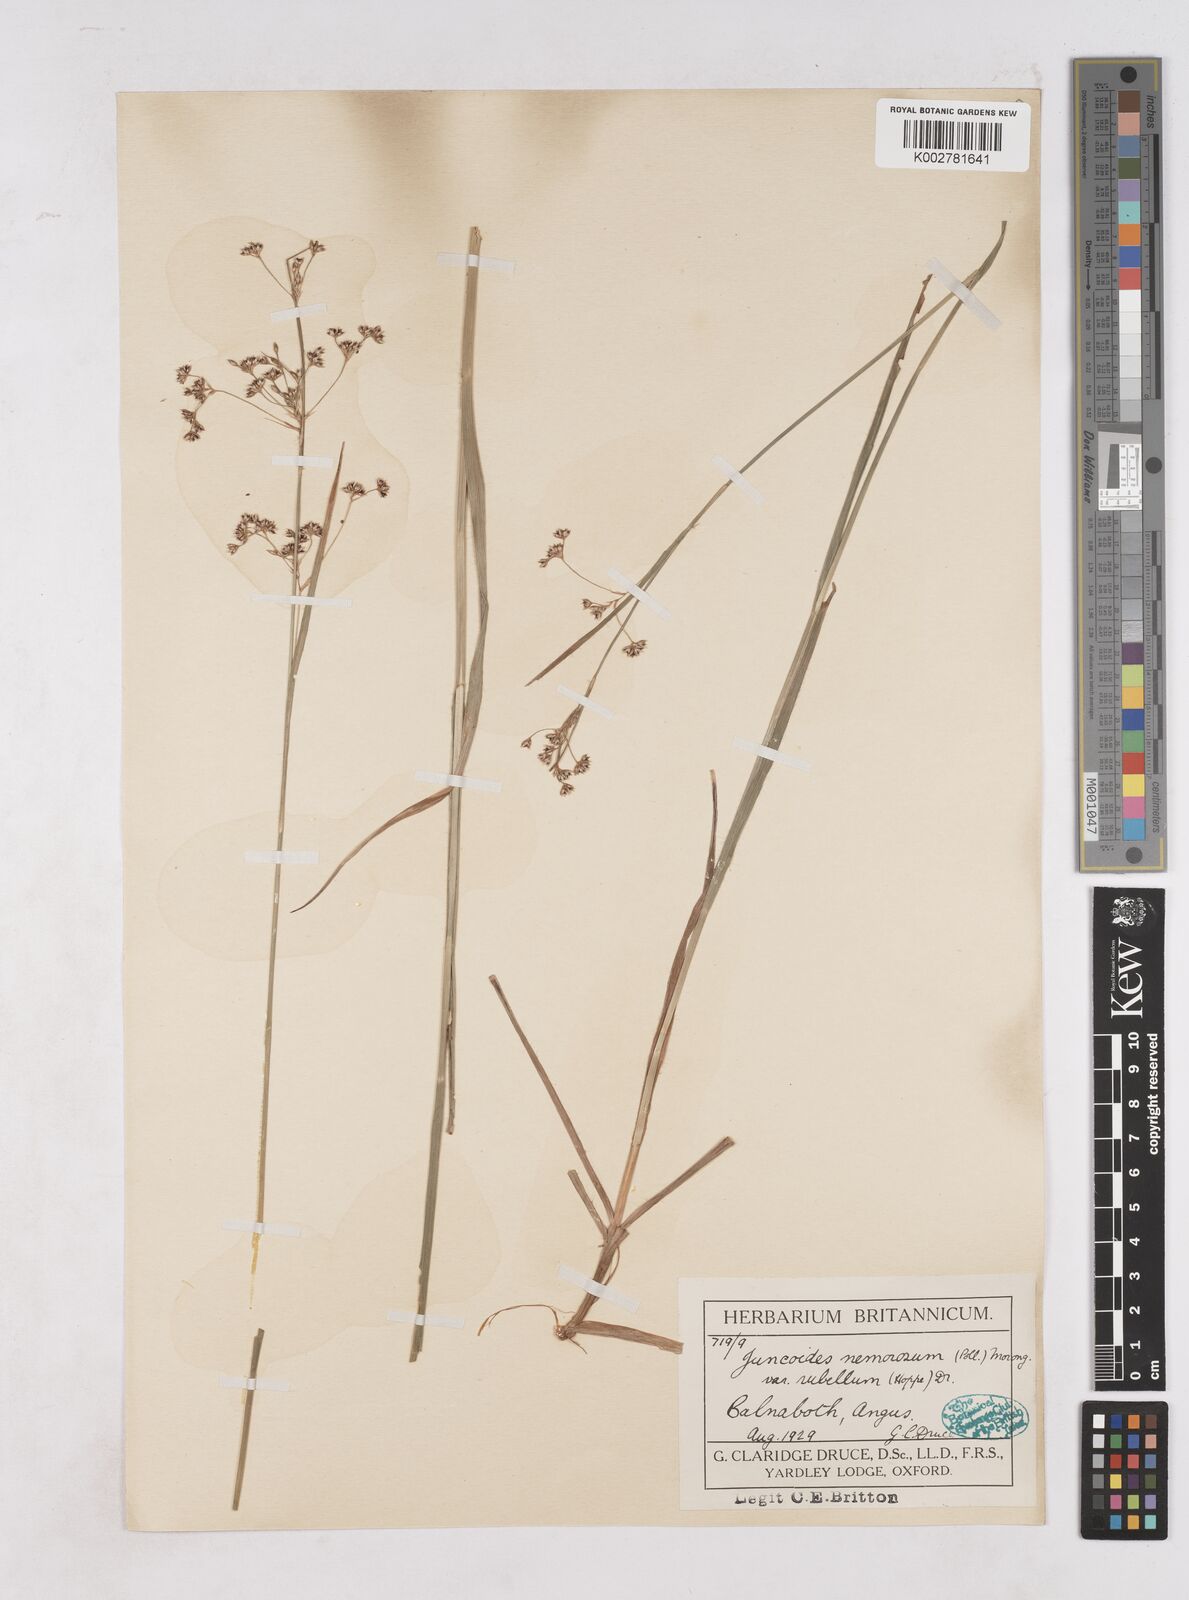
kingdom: Plantae
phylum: Tracheophyta
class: Liliopsida
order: Poales
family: Juncaceae
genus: Luzula
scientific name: Luzula luzuloides
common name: White wood-rush
